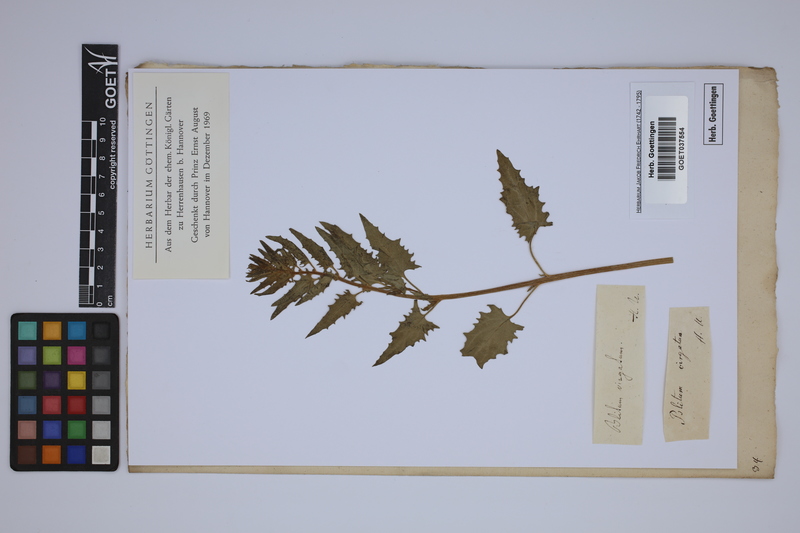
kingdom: Plantae
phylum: Tracheophyta
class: Magnoliopsida
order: Caryophyllales
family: Amaranthaceae
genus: Blitum
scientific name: Blitum virgatum
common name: Strawberry goosefoot
